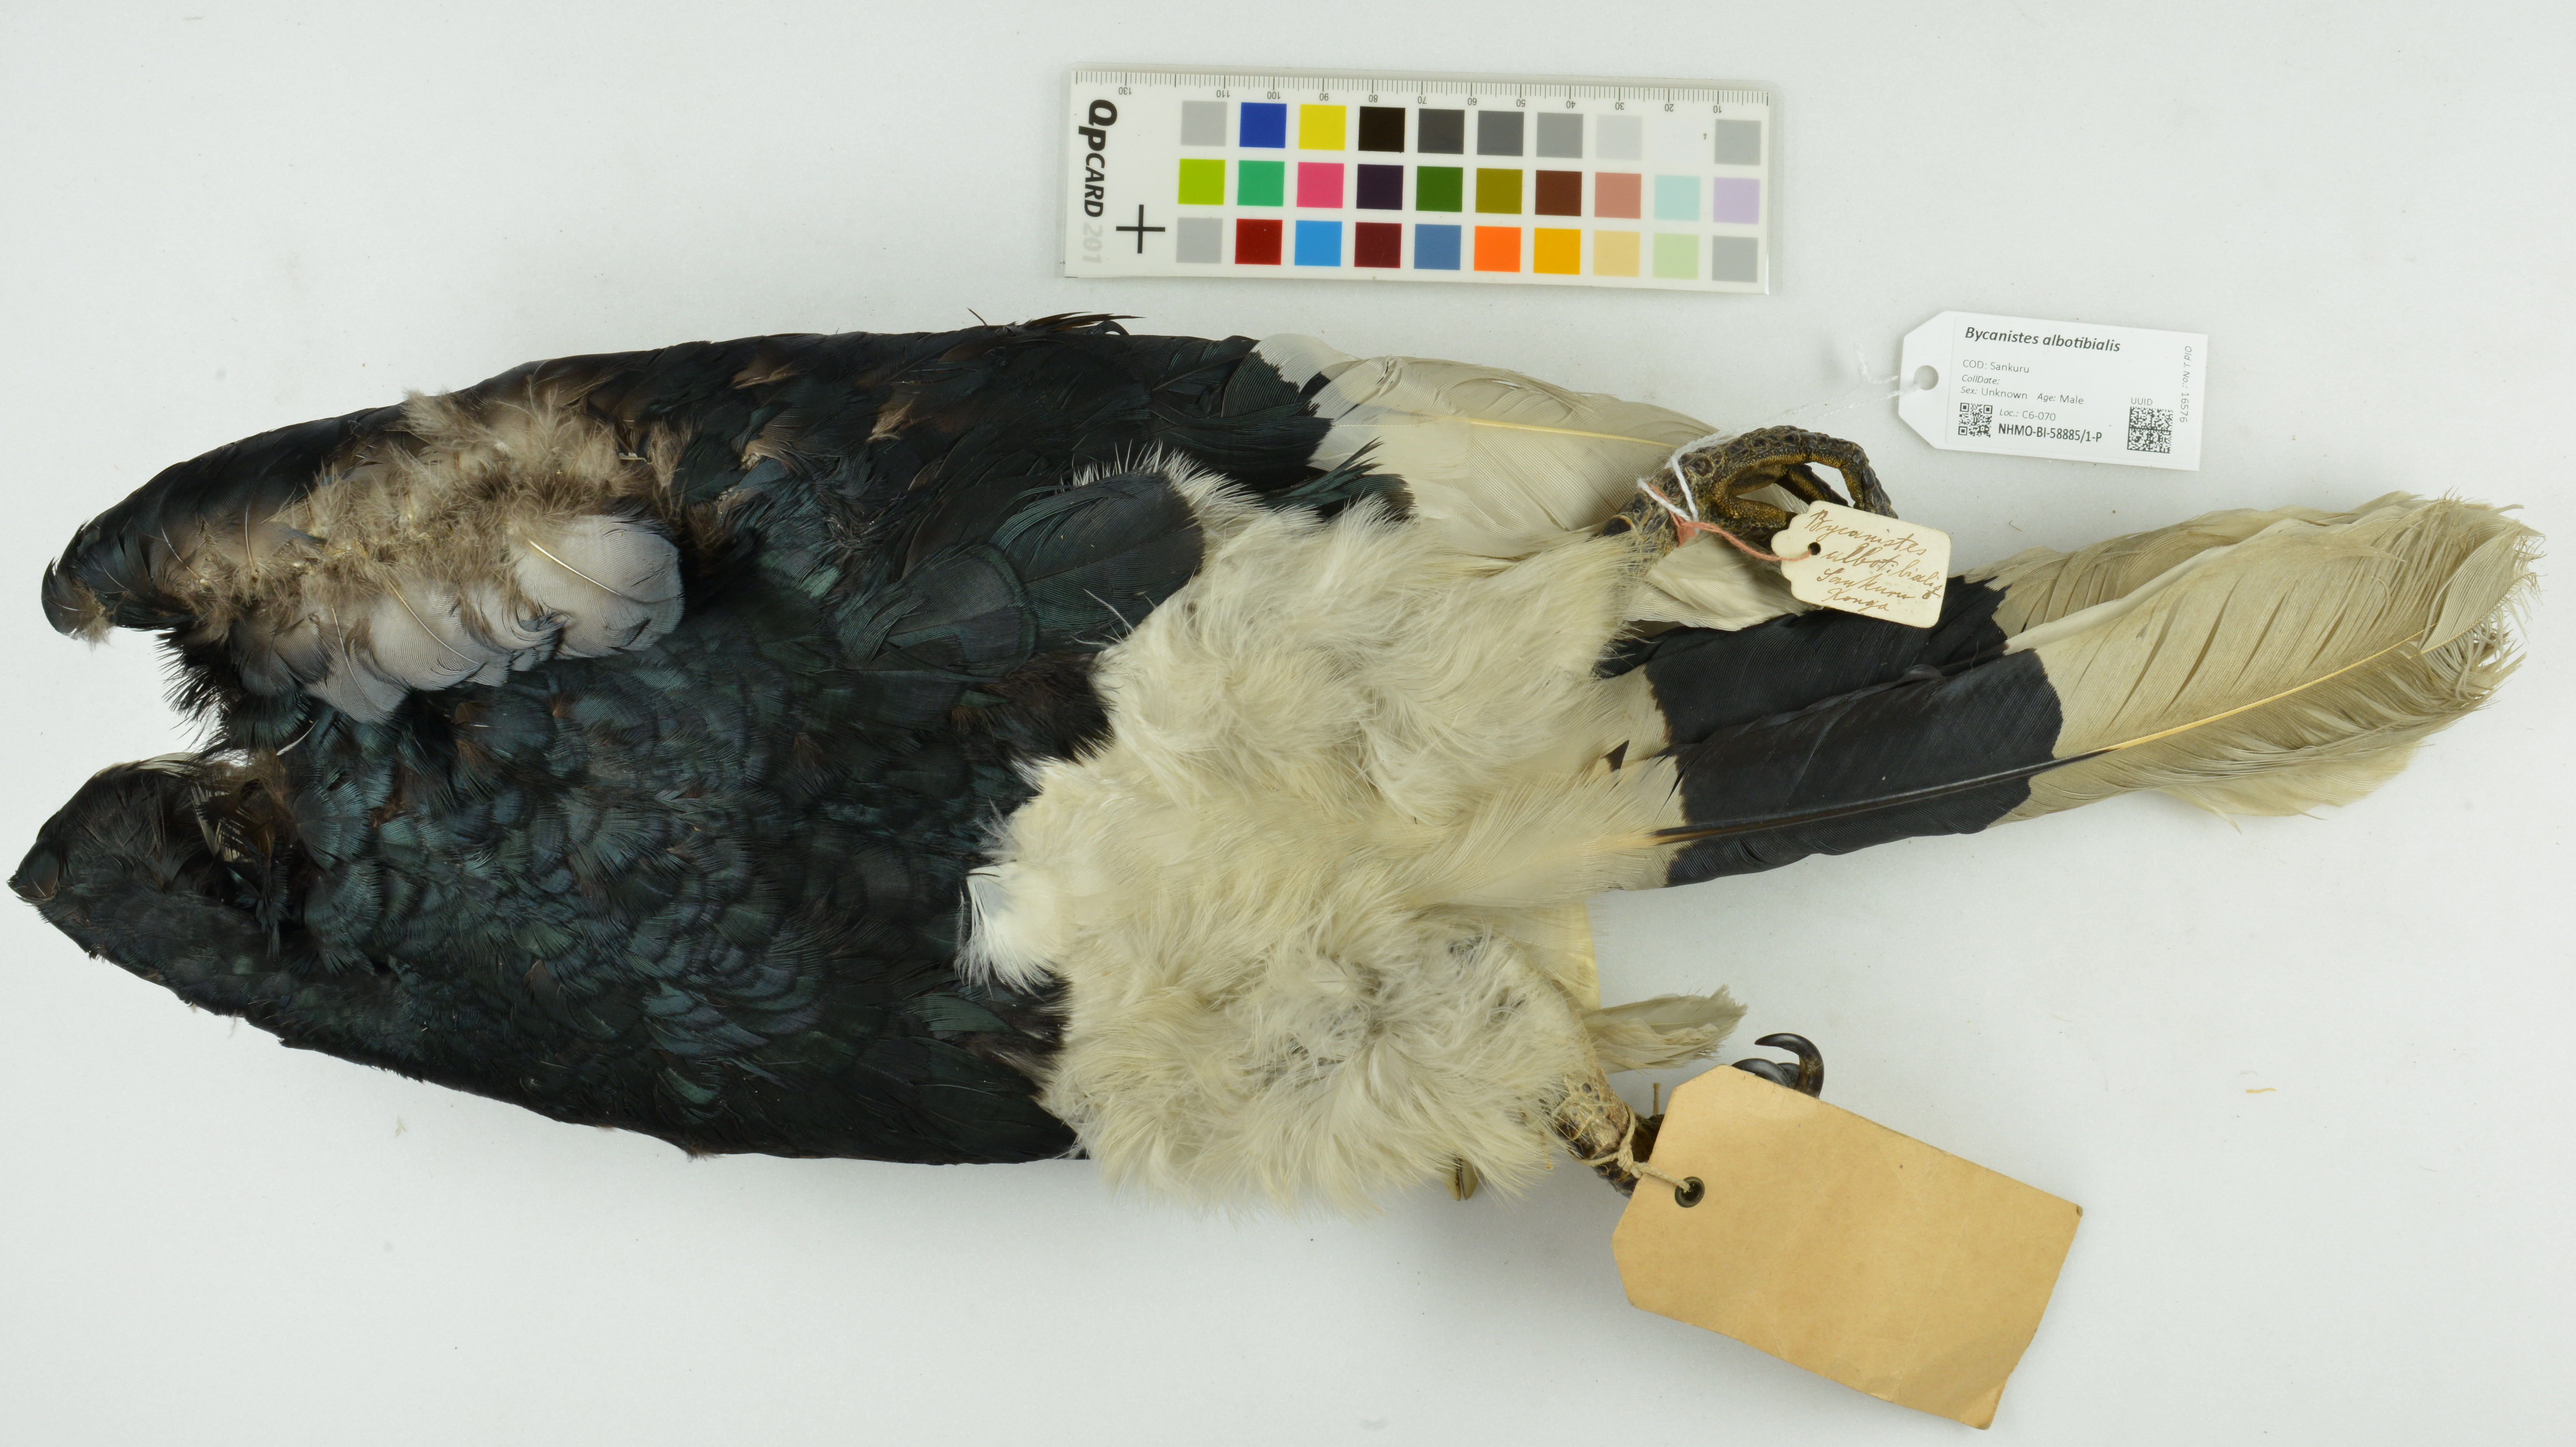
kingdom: Animalia
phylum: Chordata
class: Aves
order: Bucerotiformes
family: Bucerotidae
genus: Bycanistes
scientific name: Bycanistes albotibialis
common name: White-thighed hornbill
